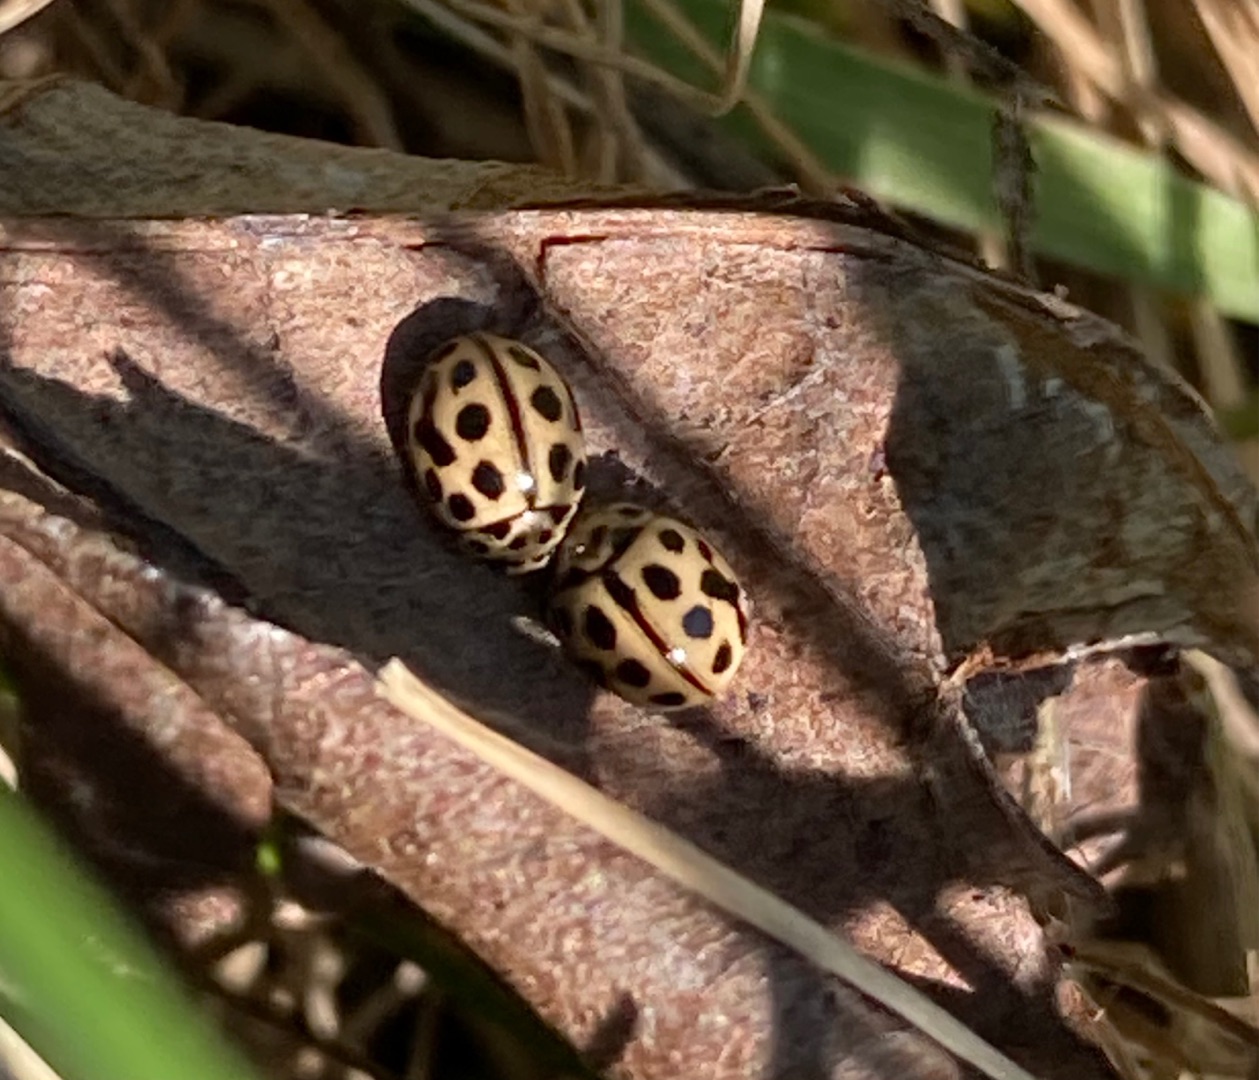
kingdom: Animalia
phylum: Arthropoda
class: Insecta
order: Coleoptera
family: Coccinellidae
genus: Tytthaspis
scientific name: Tytthaspis sedecimpunctata
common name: Sekstenprikket mariehøne
